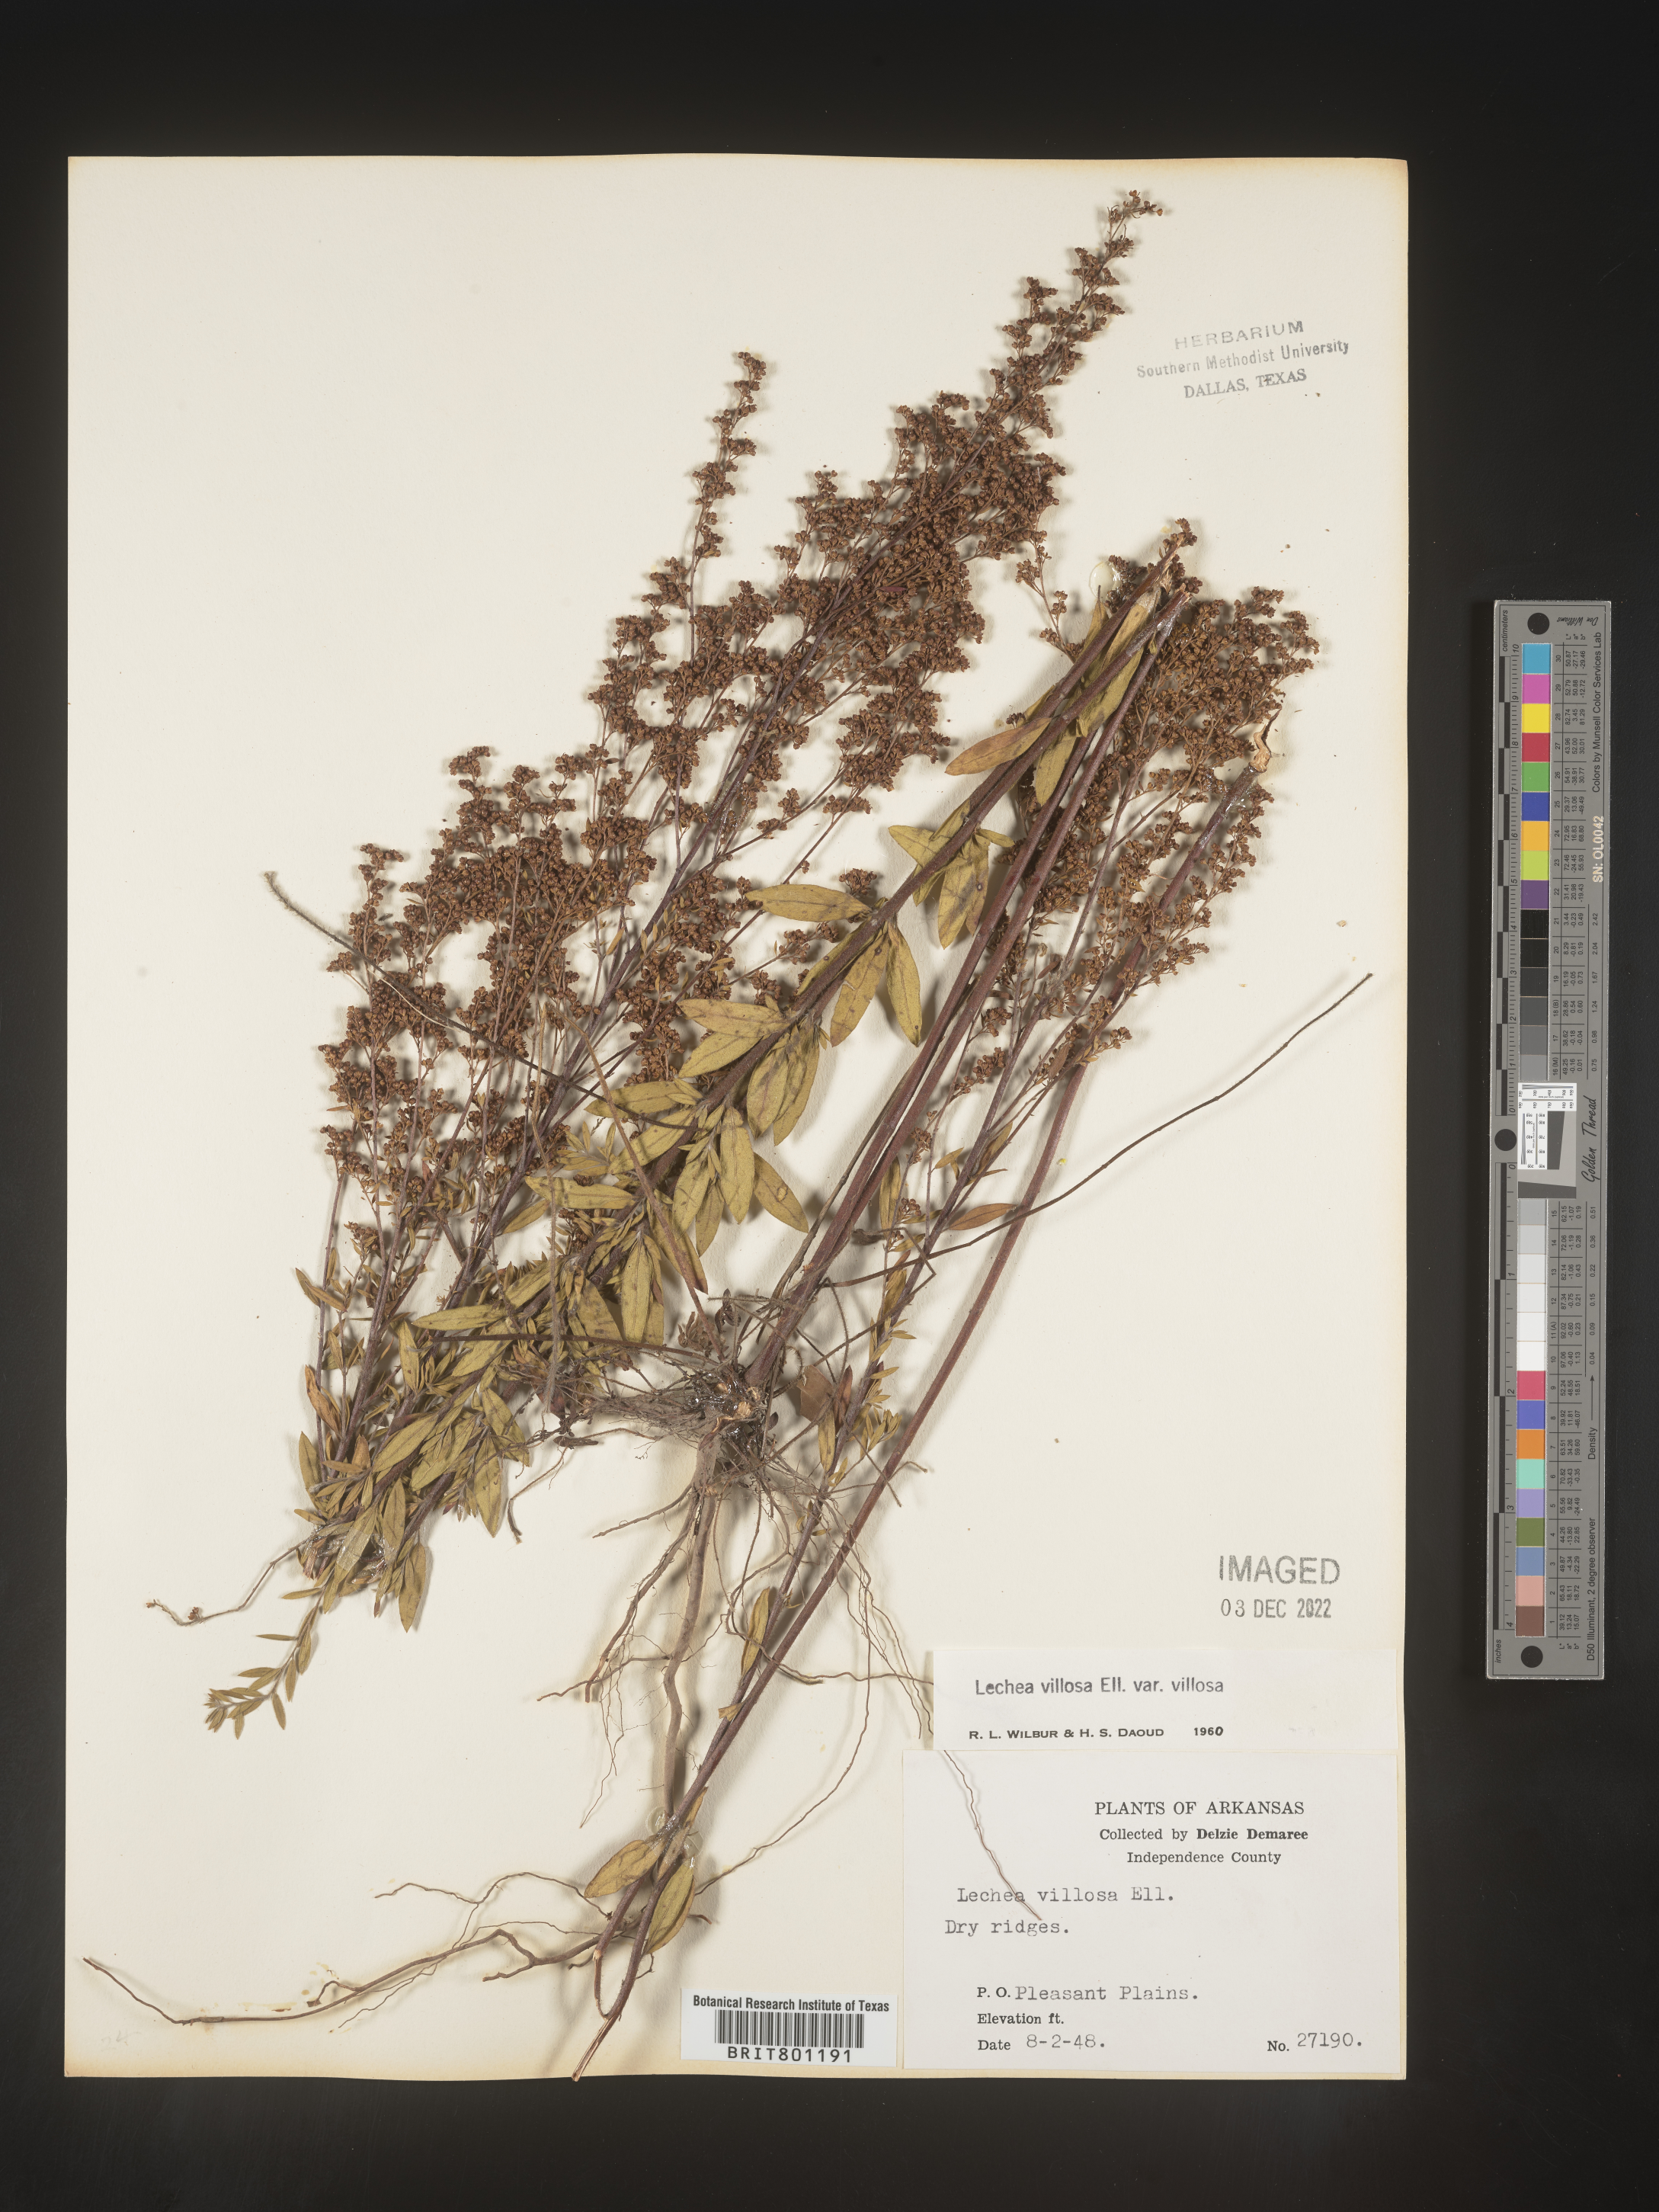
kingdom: Plantae
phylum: Tracheophyta
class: Magnoliopsida
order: Malvales
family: Cistaceae
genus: Lechea
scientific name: Lechea mucronata
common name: Hairy pinweed
